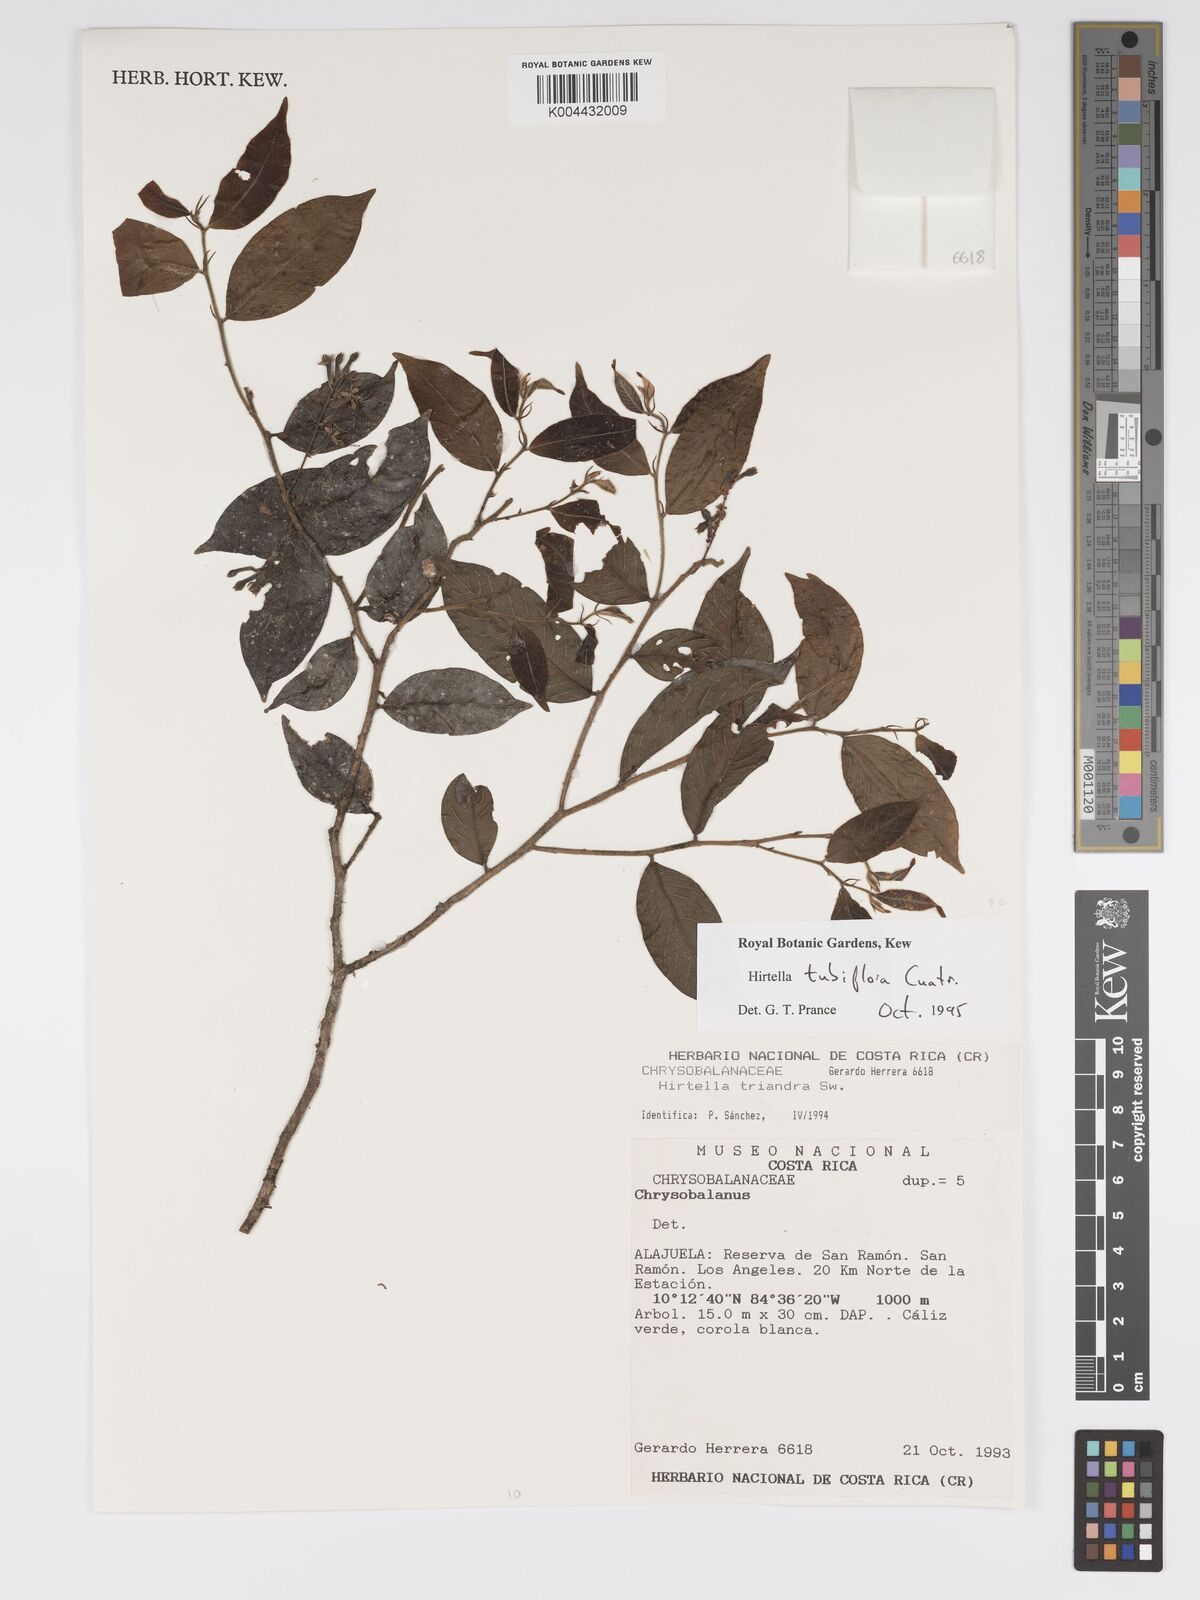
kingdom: Plantae
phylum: Tracheophyta
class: Magnoliopsida
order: Malpighiales
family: Chrysobalanaceae
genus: Hirtella
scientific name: Hirtella tubiflora
